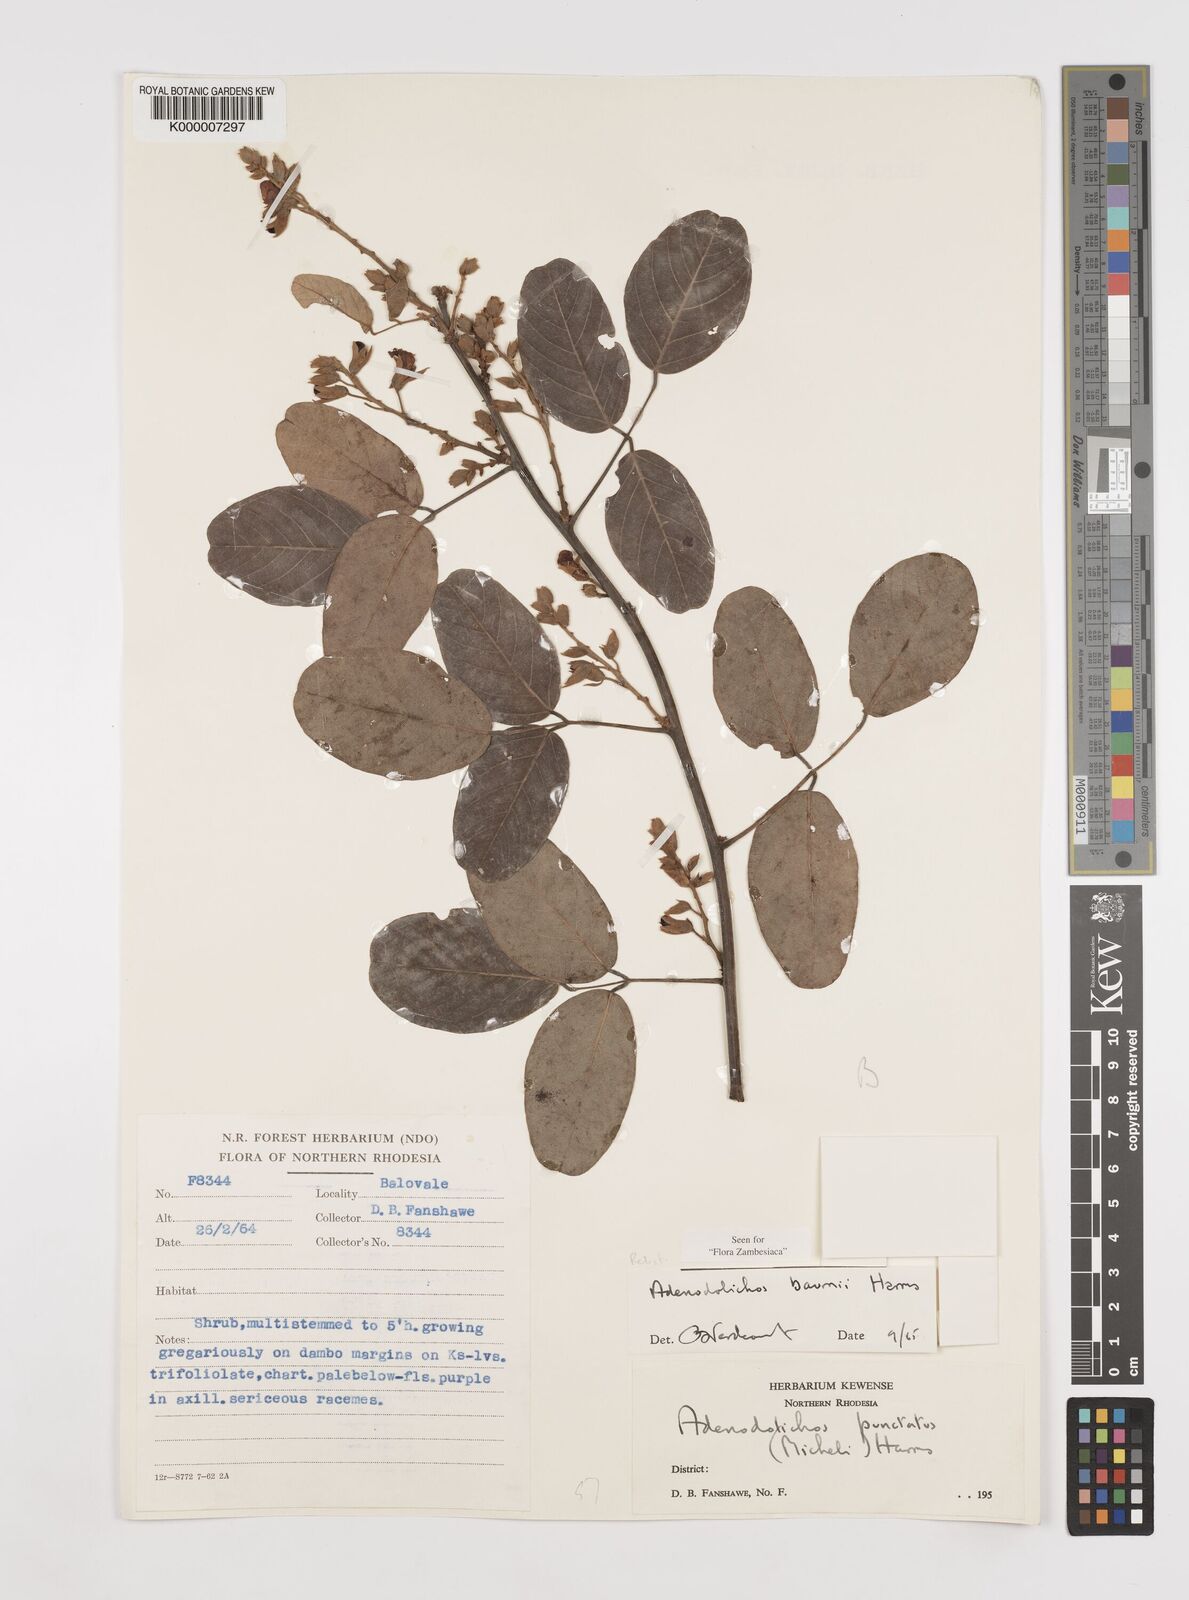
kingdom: Plantae
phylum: Tracheophyta
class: Magnoliopsida
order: Fabales
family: Fabaceae
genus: Adenodolichos
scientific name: Adenodolichos baumii
